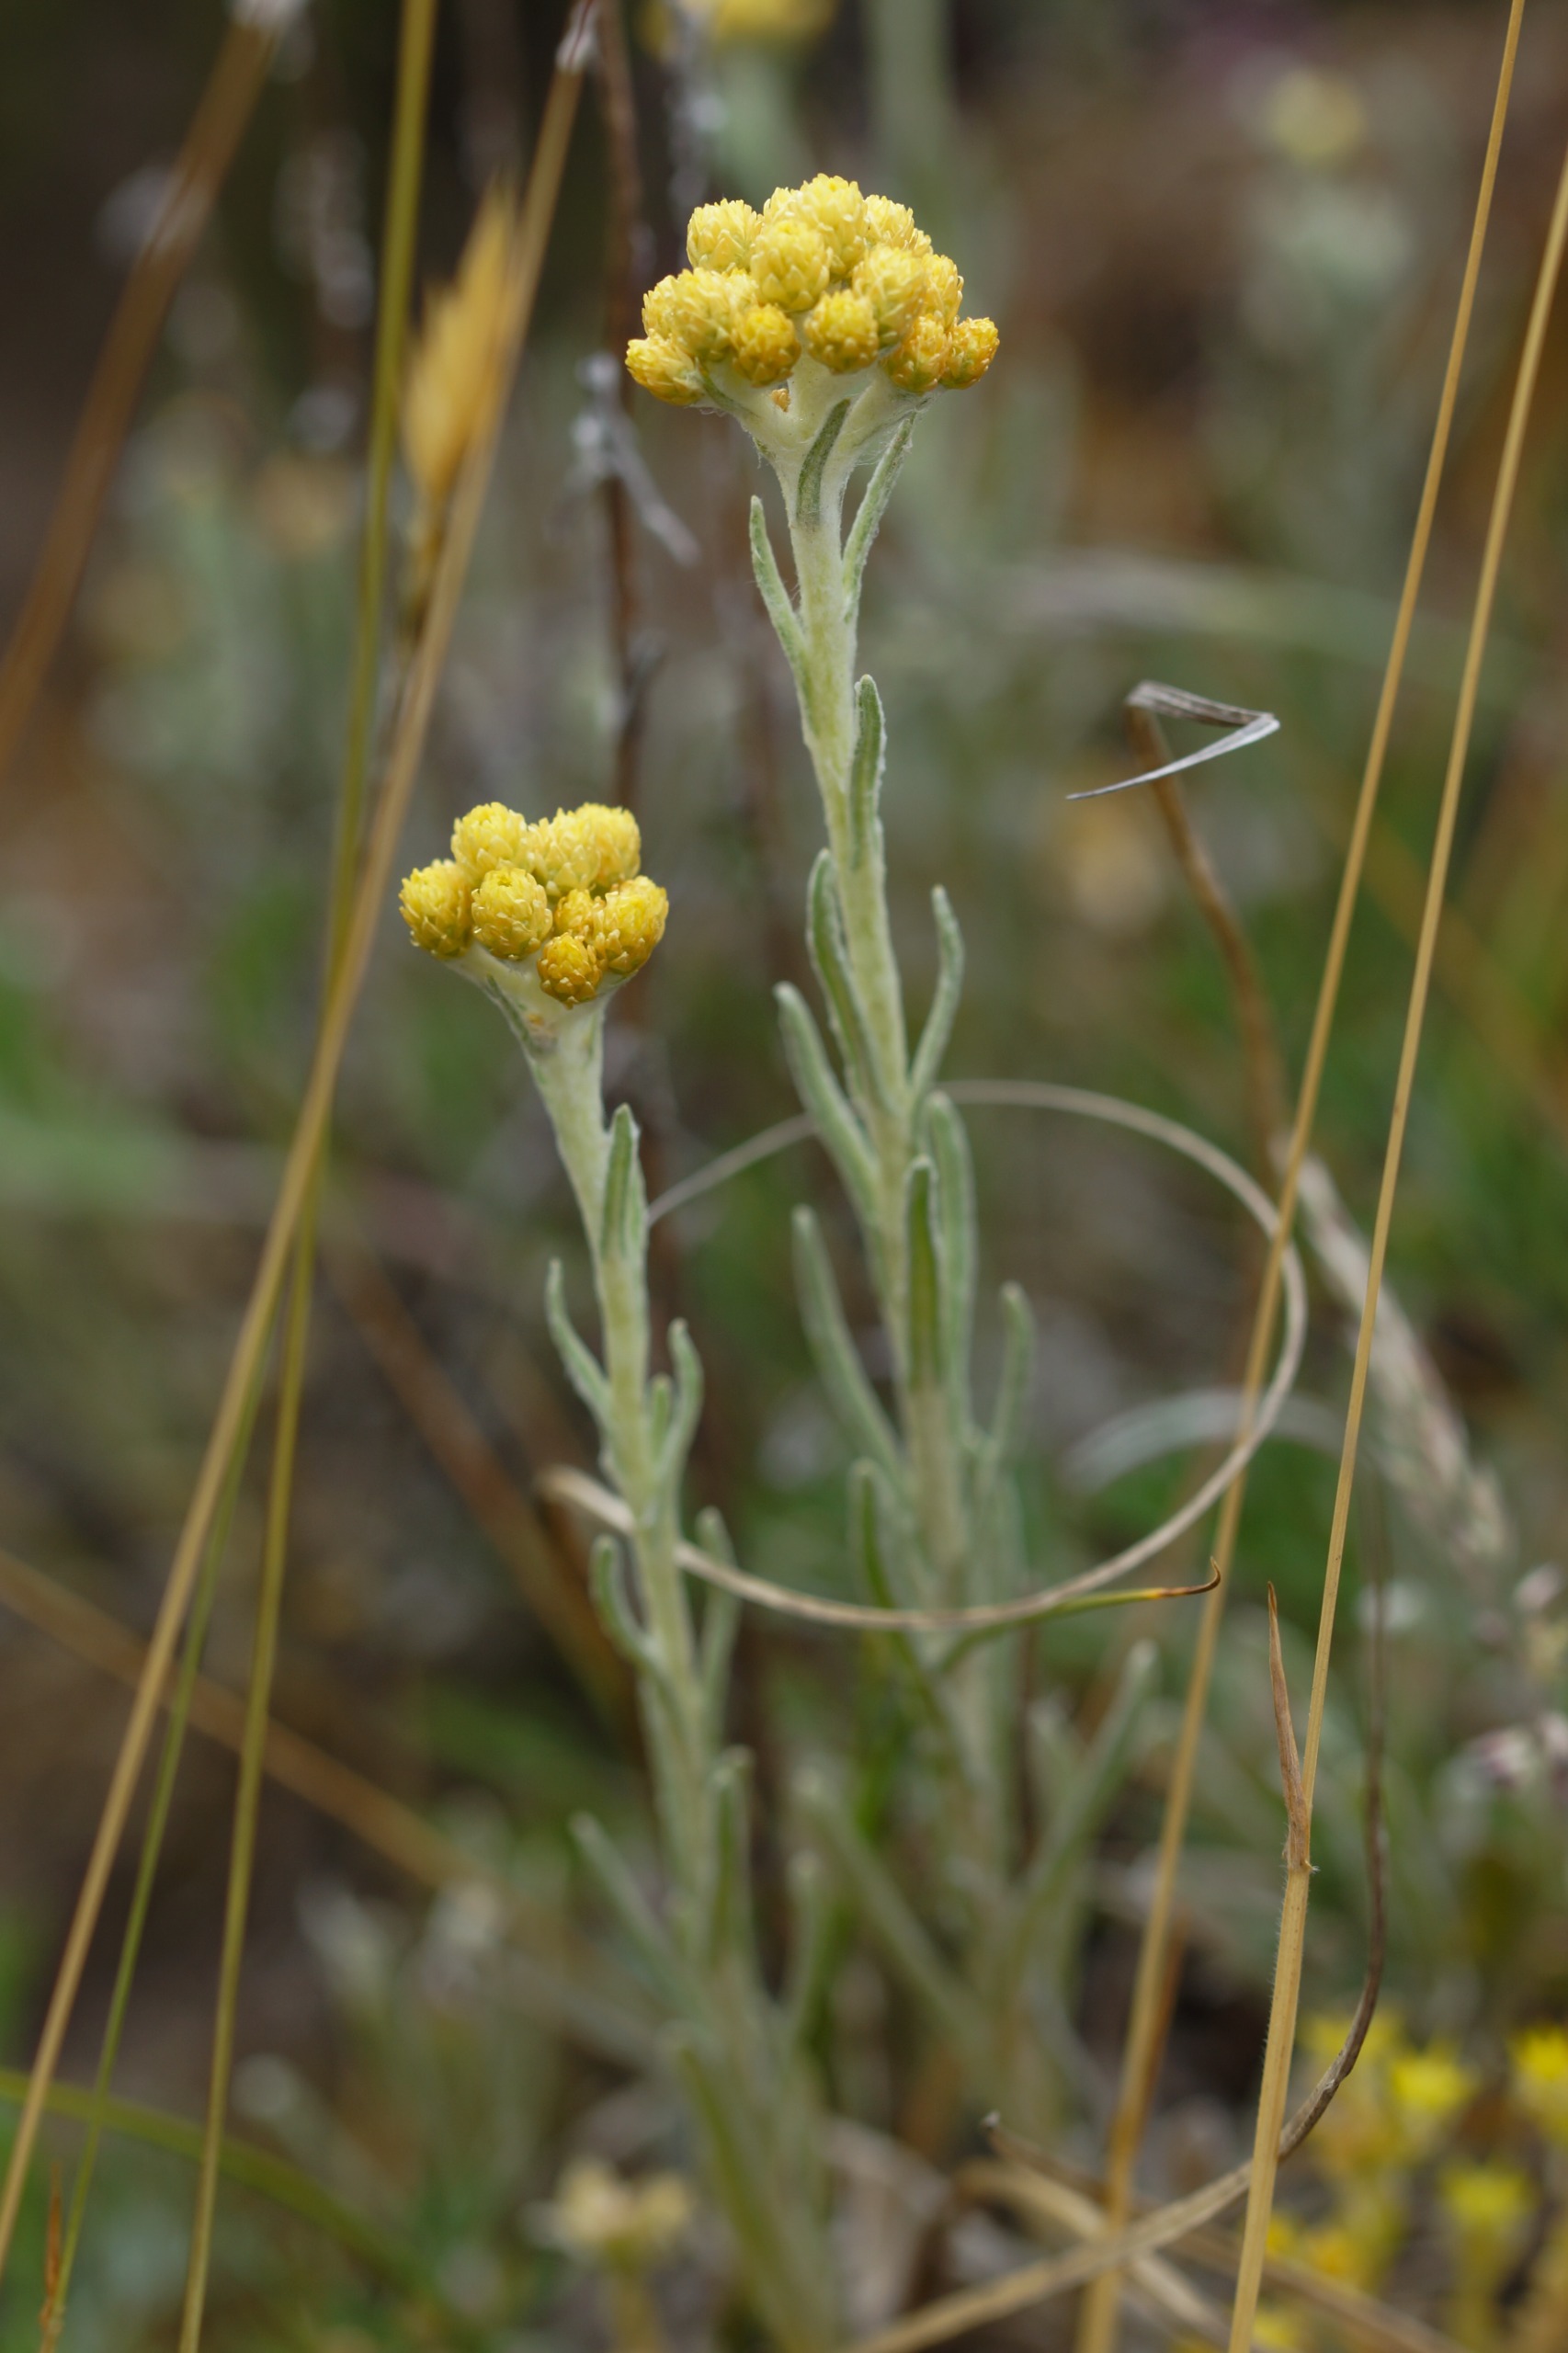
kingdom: Plantae
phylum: Tracheophyta
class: Magnoliopsida
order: Asterales
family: Asteraceae
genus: Helichrysum
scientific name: Helichrysum arenarium
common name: Gul evighedsblomst
